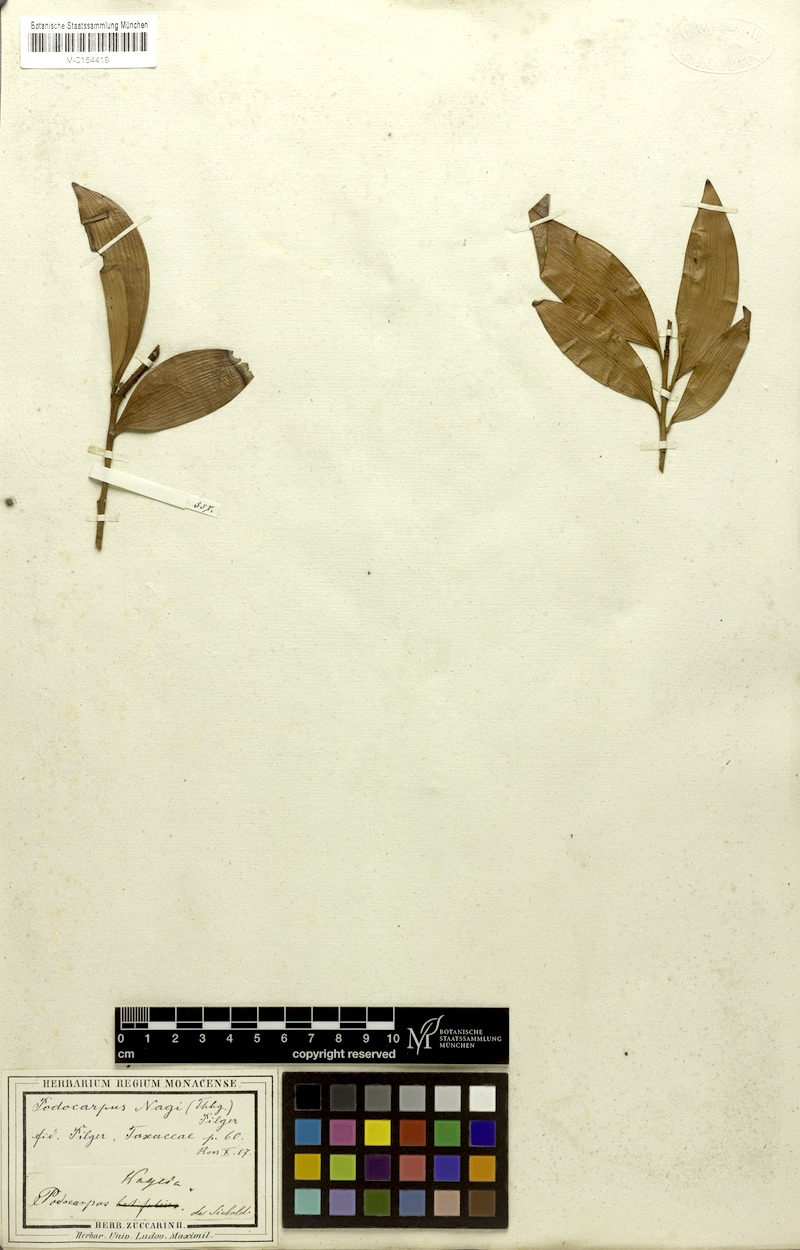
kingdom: Plantae
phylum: Tracheophyta
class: Pinopsida
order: Pinales
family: Podocarpaceae
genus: Nageia
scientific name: Nageia nagi
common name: Kaphal
